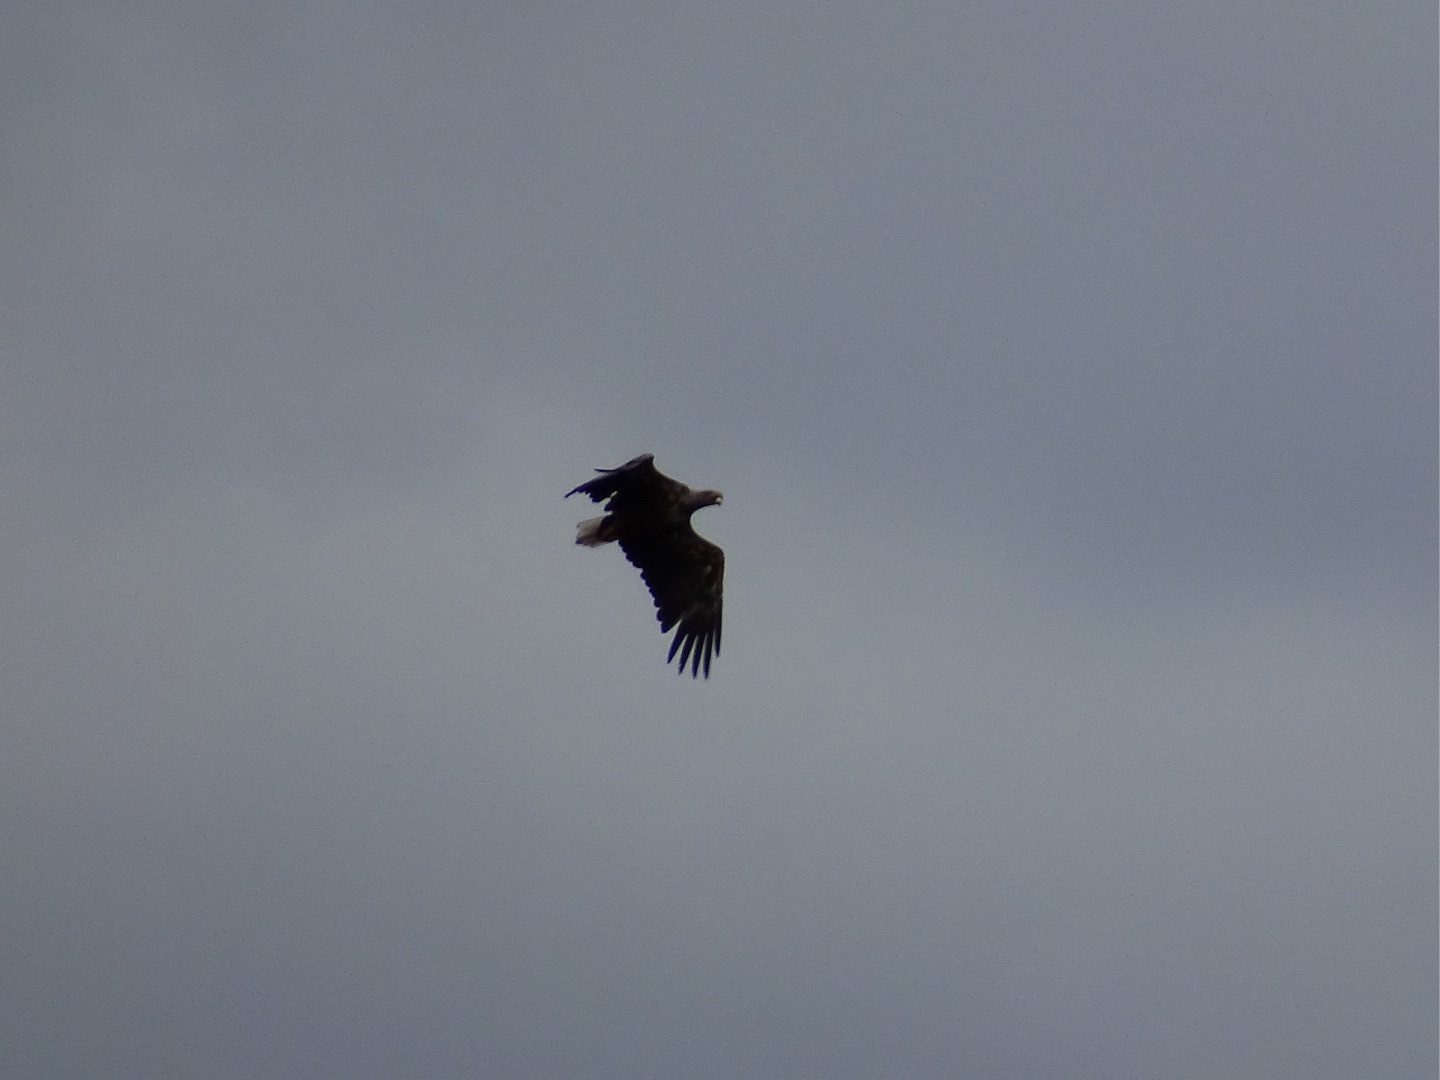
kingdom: Animalia
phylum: Chordata
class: Aves
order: Accipitriformes
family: Accipitridae
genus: Haliaeetus
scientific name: Haliaeetus albicilla
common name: Havørn
